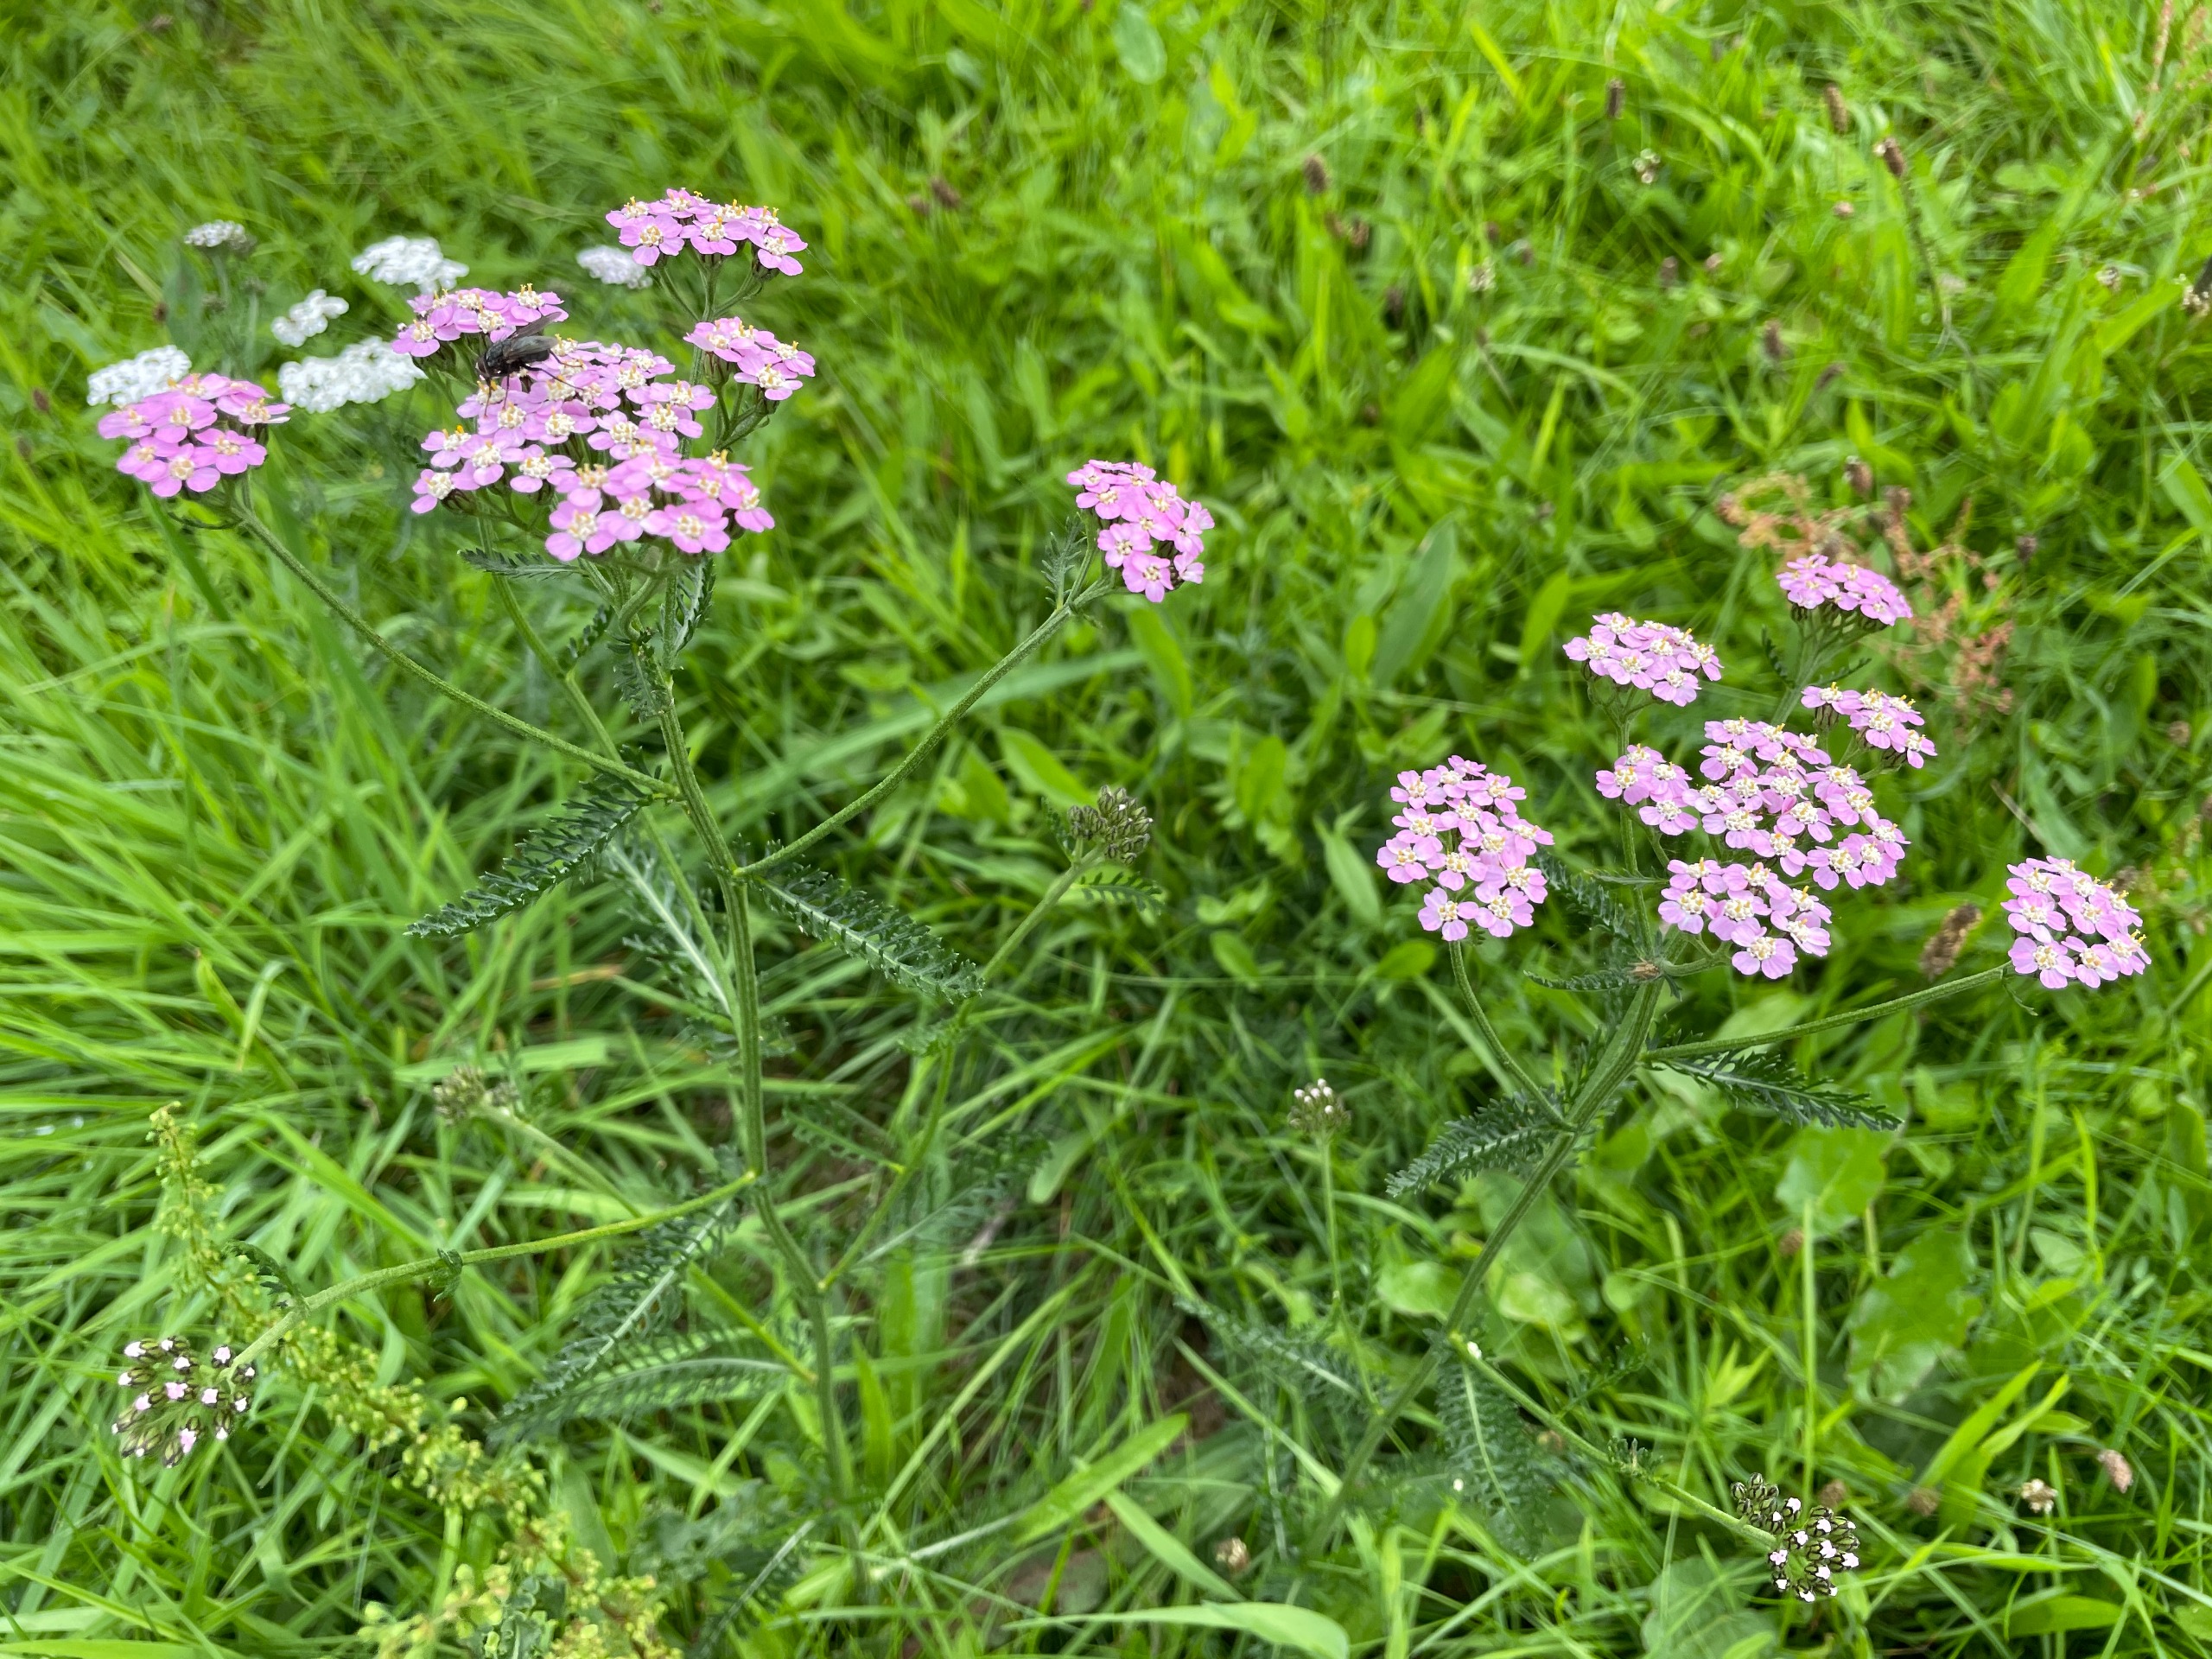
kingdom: Plantae
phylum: Tracheophyta
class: Magnoliopsida
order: Asterales
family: Asteraceae
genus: Achillea
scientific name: Achillea millefolium
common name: Almindelig røllike
